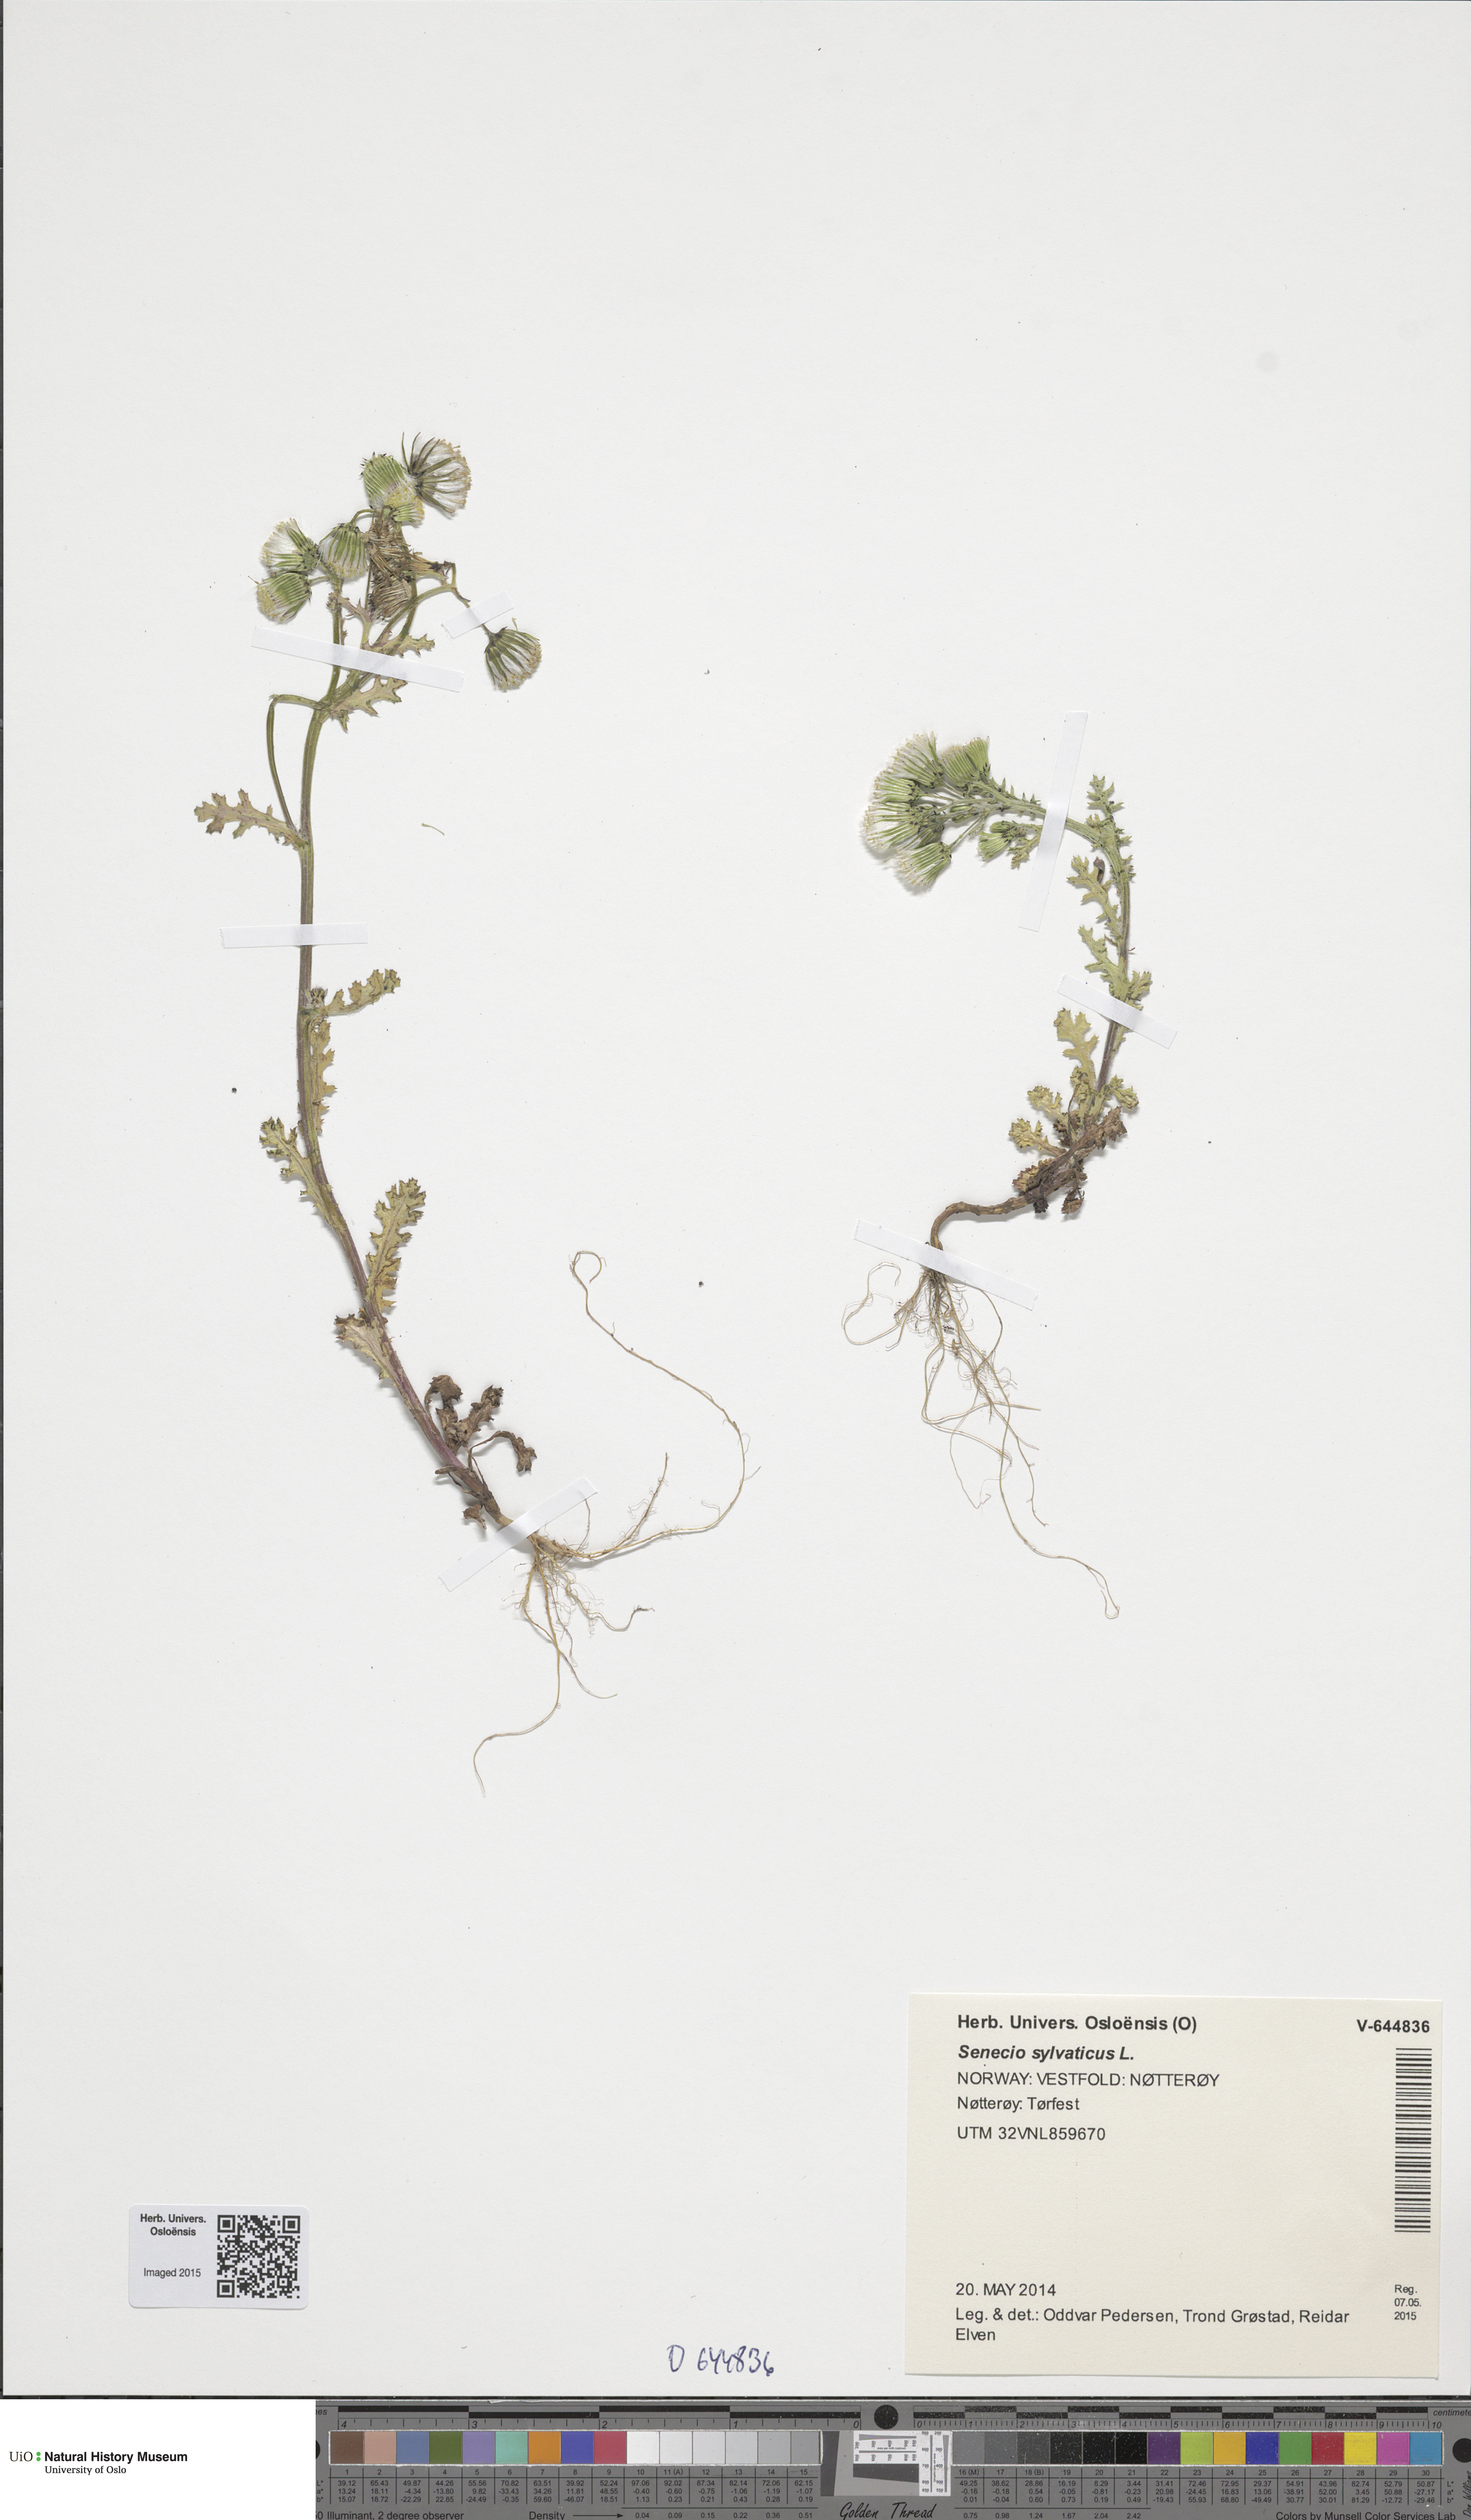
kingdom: Plantae
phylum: Tracheophyta
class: Magnoliopsida
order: Asterales
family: Asteraceae
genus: Senecio
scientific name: Senecio vulgaris
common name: Old-man-in-the-spring
